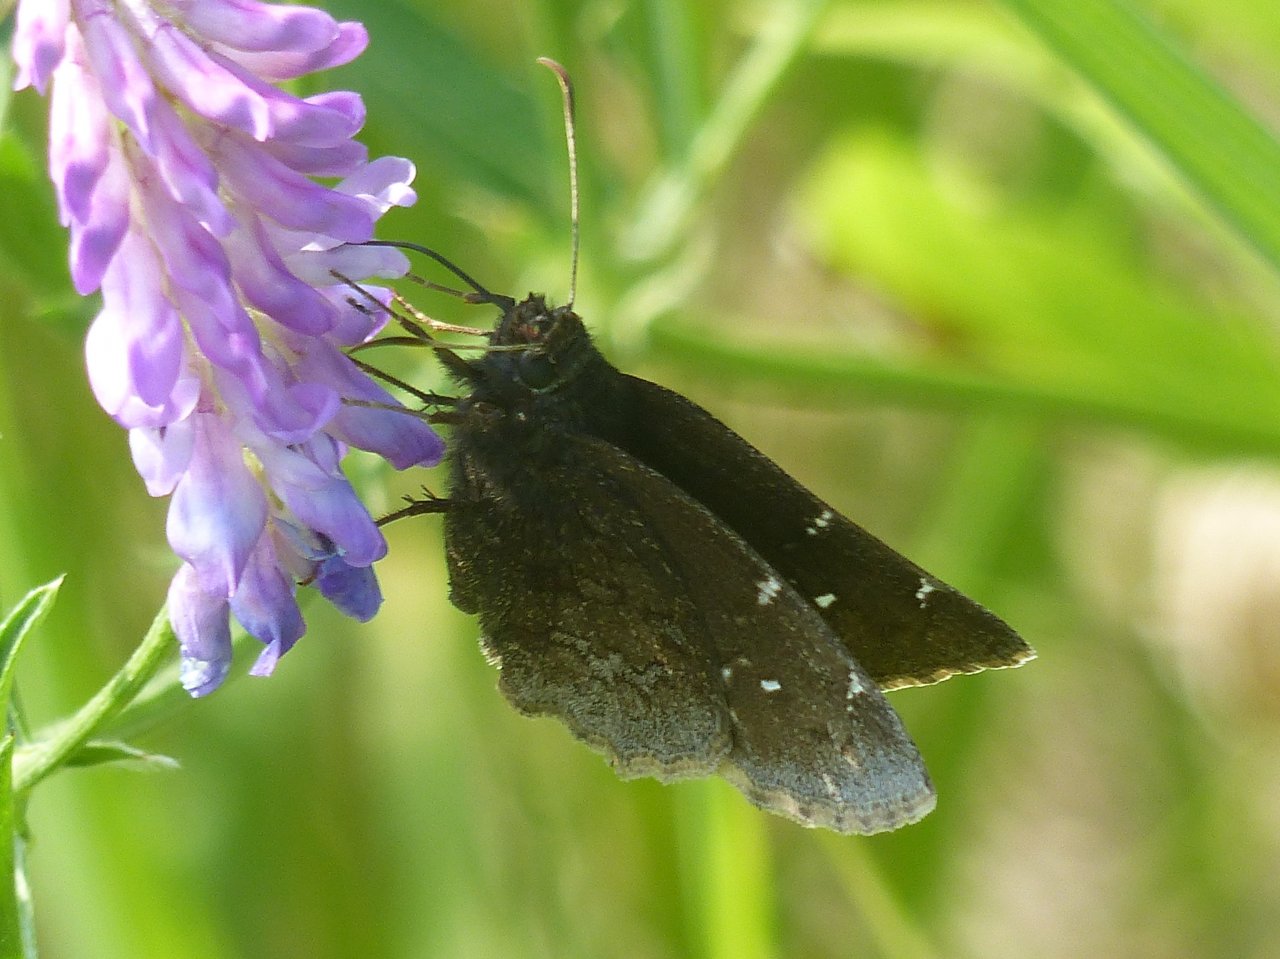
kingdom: Animalia
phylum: Arthropoda
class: Insecta
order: Lepidoptera
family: Hesperiidae
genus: Autochton
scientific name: Autochton
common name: Northern Cloudywing
